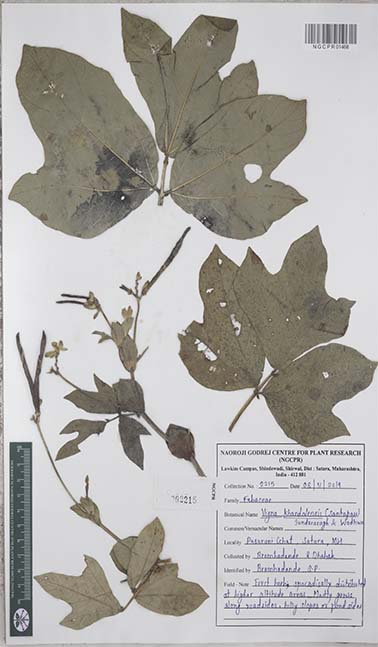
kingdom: Plantae
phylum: Tracheophyta
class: Magnoliopsida
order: Fabales
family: Fabaceae
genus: Vigna
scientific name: Vigna khandalensis
